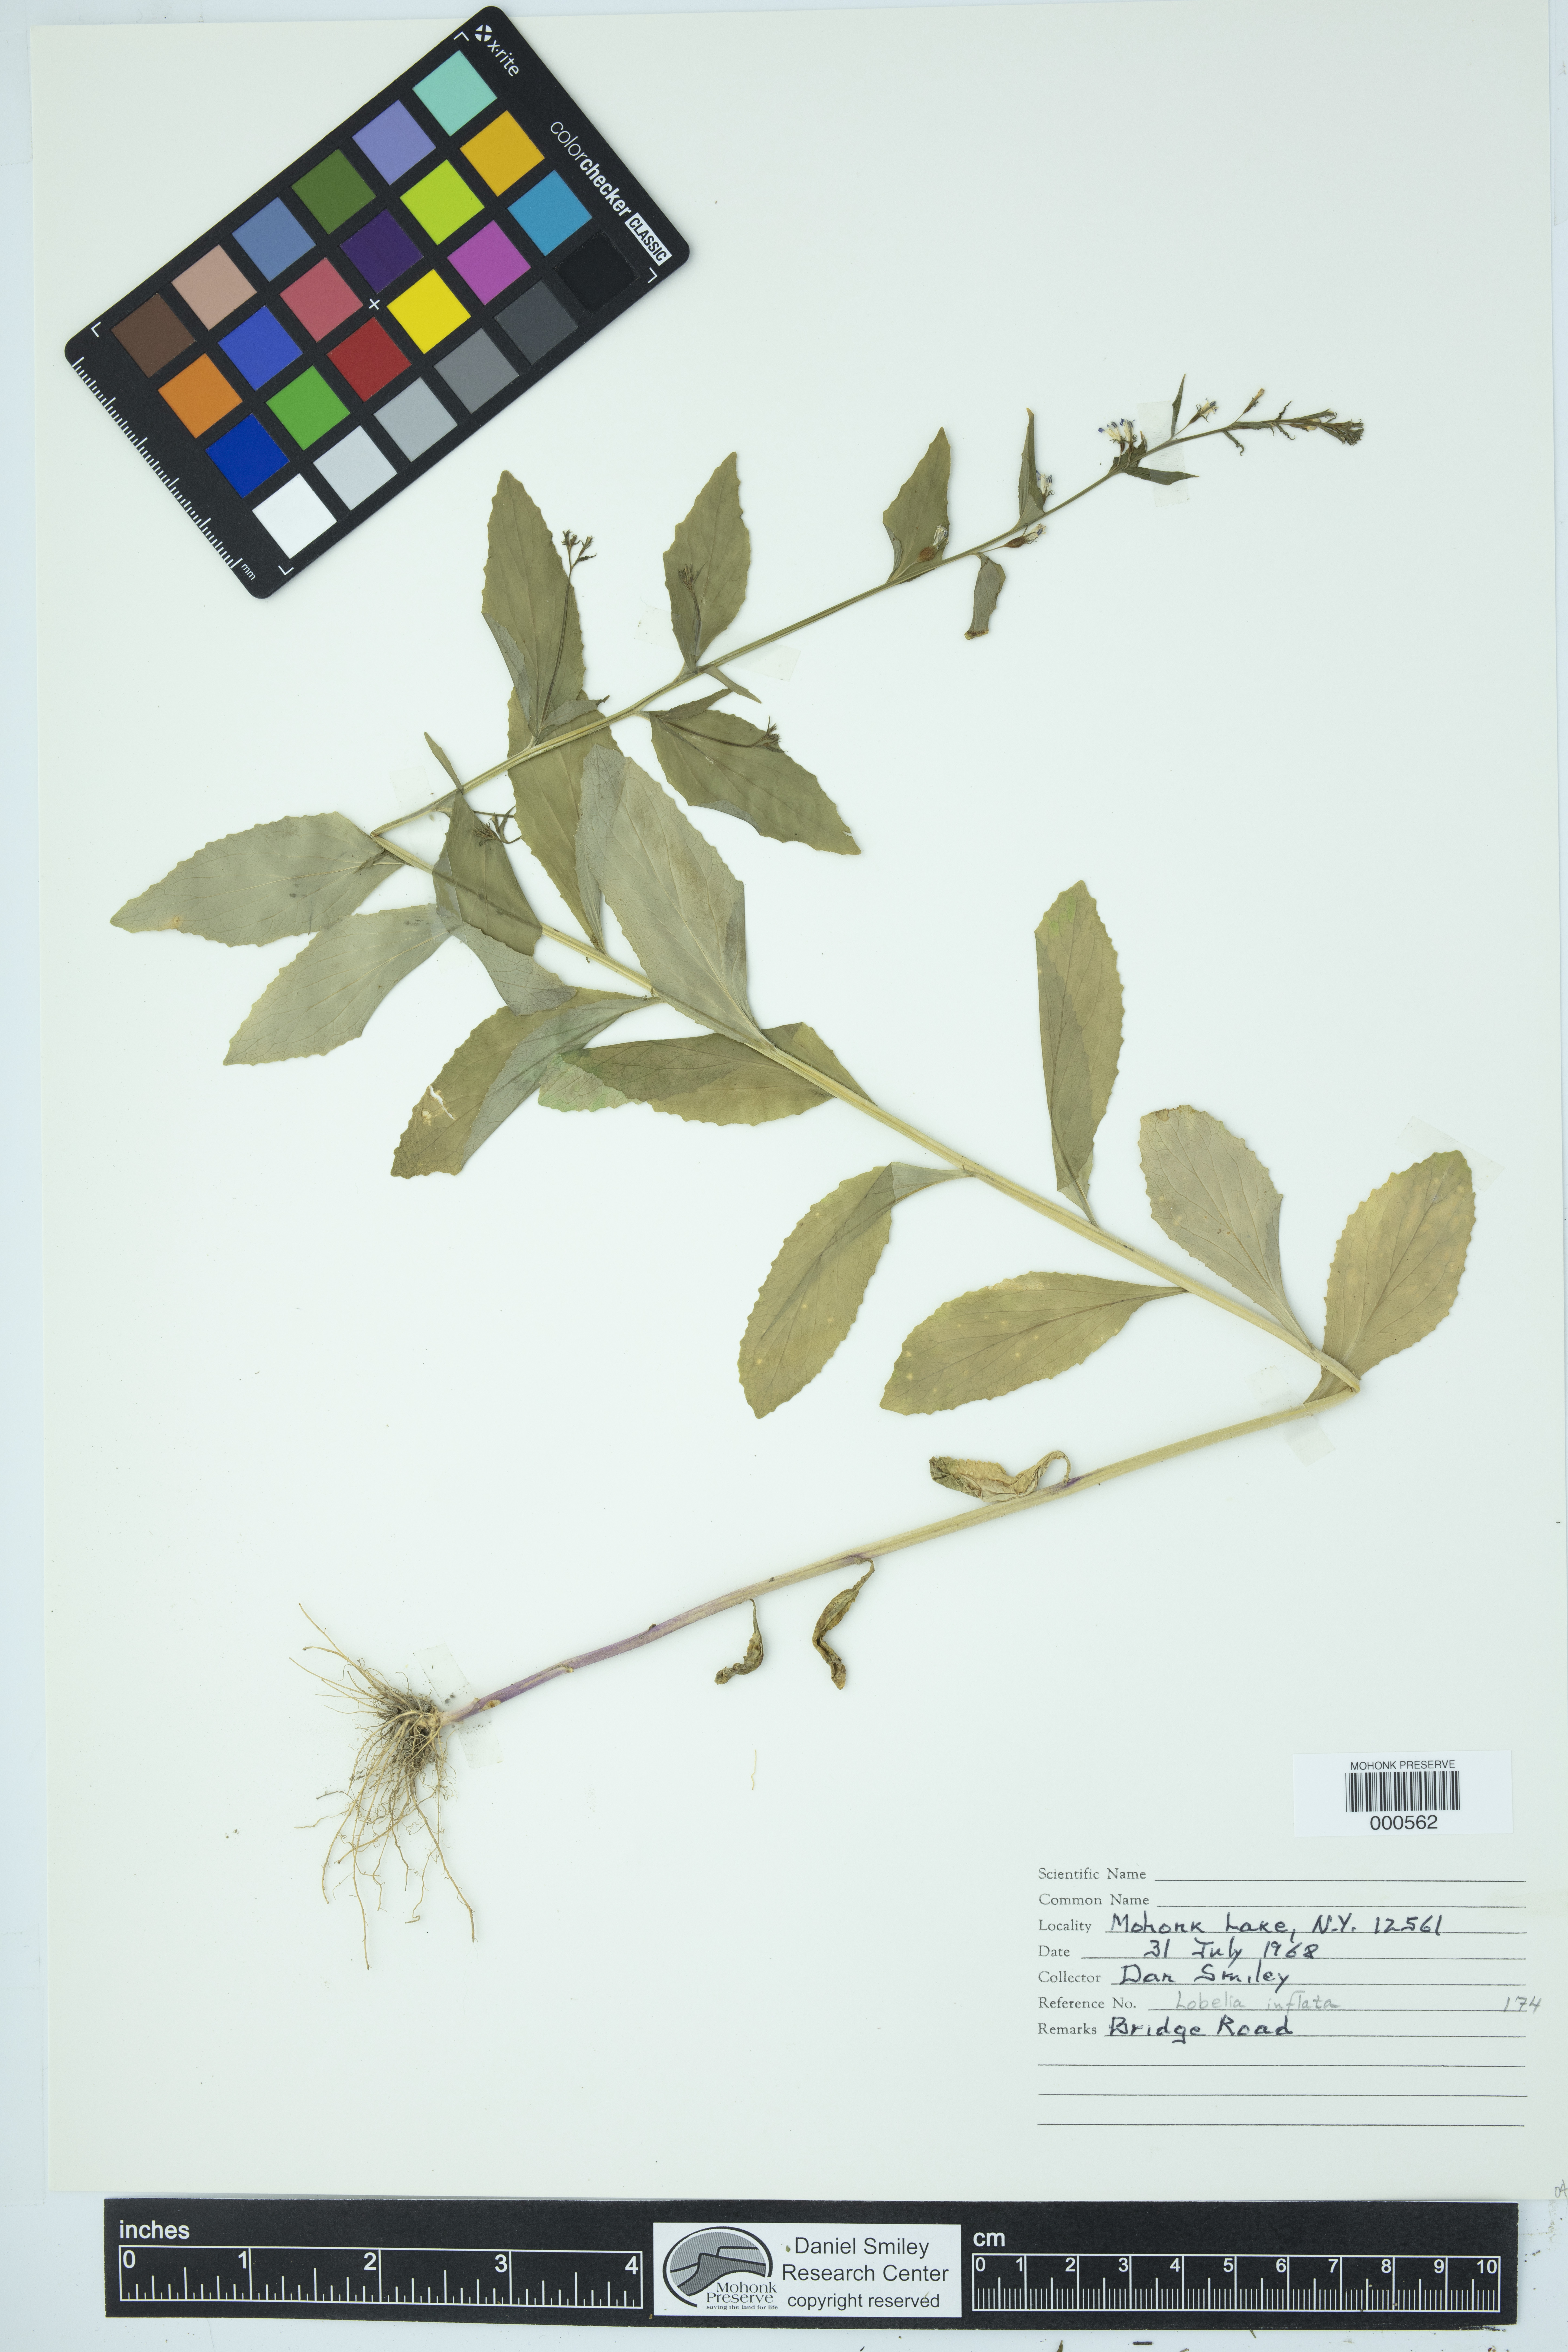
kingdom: Plantae
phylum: Tracheophyta
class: Magnoliopsida
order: Asterales
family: Campanulaceae
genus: Lobelia
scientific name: Lobelia inflata
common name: Indian tobacco
